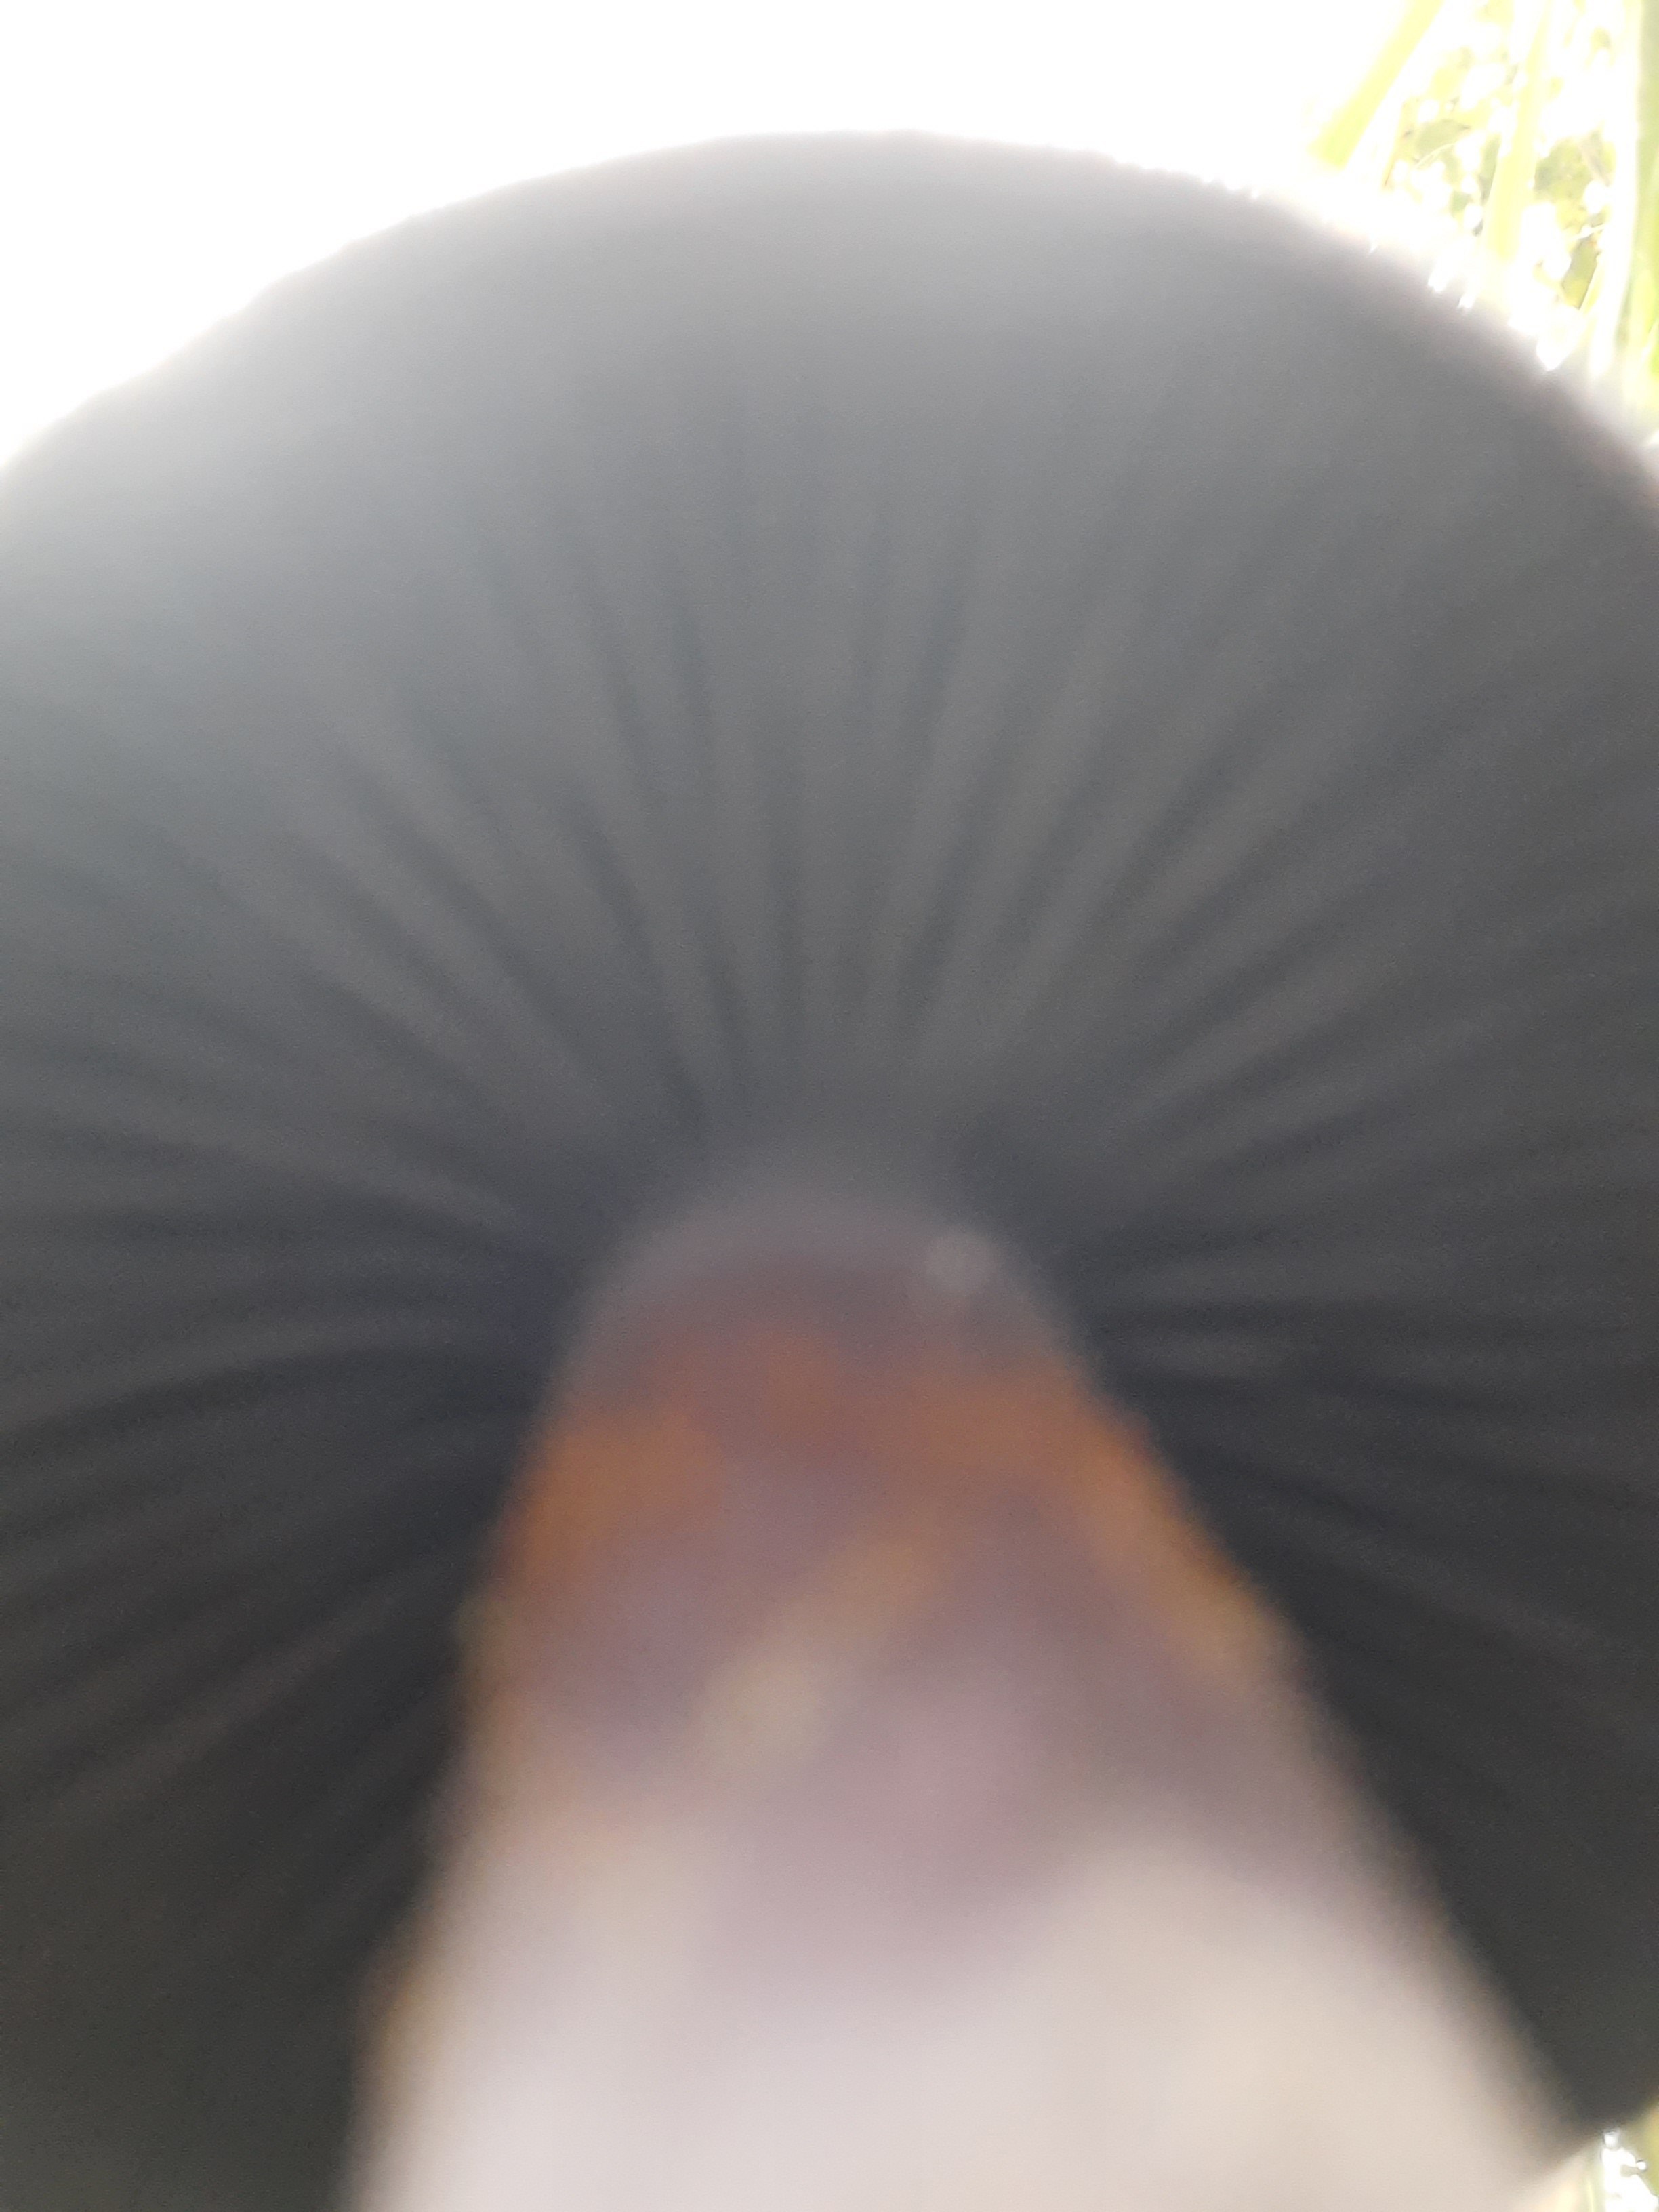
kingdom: Fungi
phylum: Basidiomycota
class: Agaricomycetes
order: Agaricales
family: Cortinariaceae
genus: Cortinarius
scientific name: Cortinarius violaceus
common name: mørkviolet slørhat
